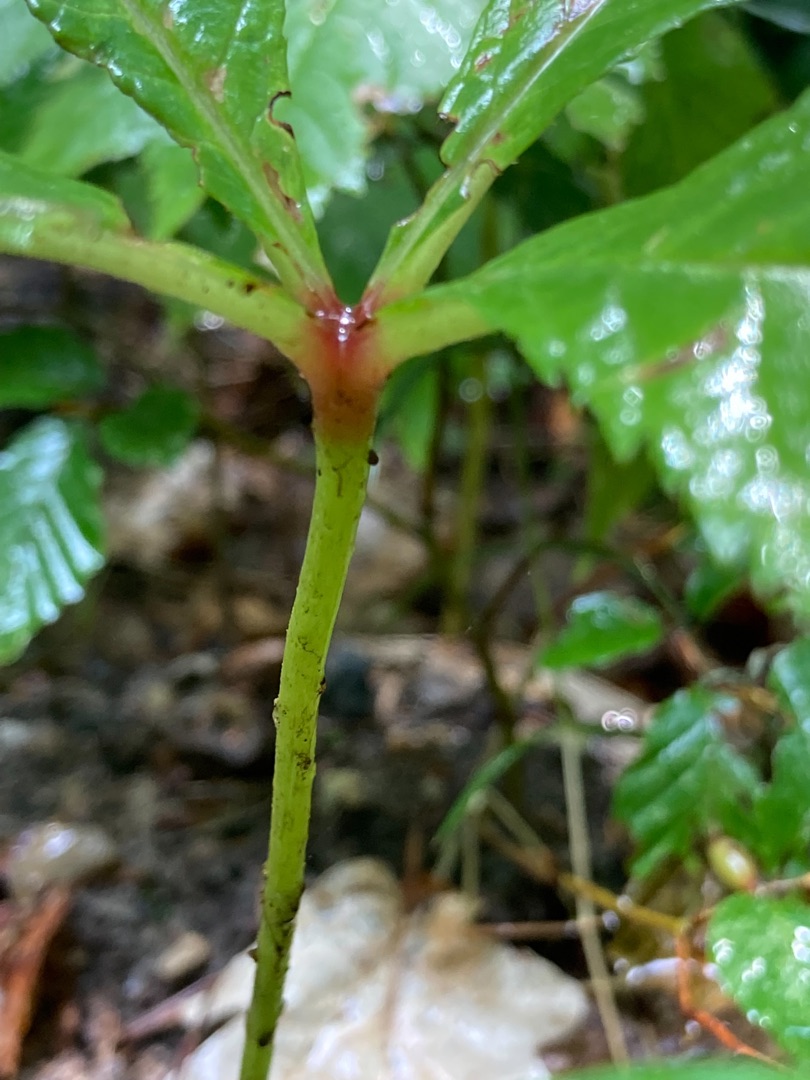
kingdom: Plantae
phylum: Tracheophyta
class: Magnoliopsida
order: Saxifragales
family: Saxifragaceae
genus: Rodgersia
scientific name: Rodgersia podophylla
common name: Stilket bronzeblad
